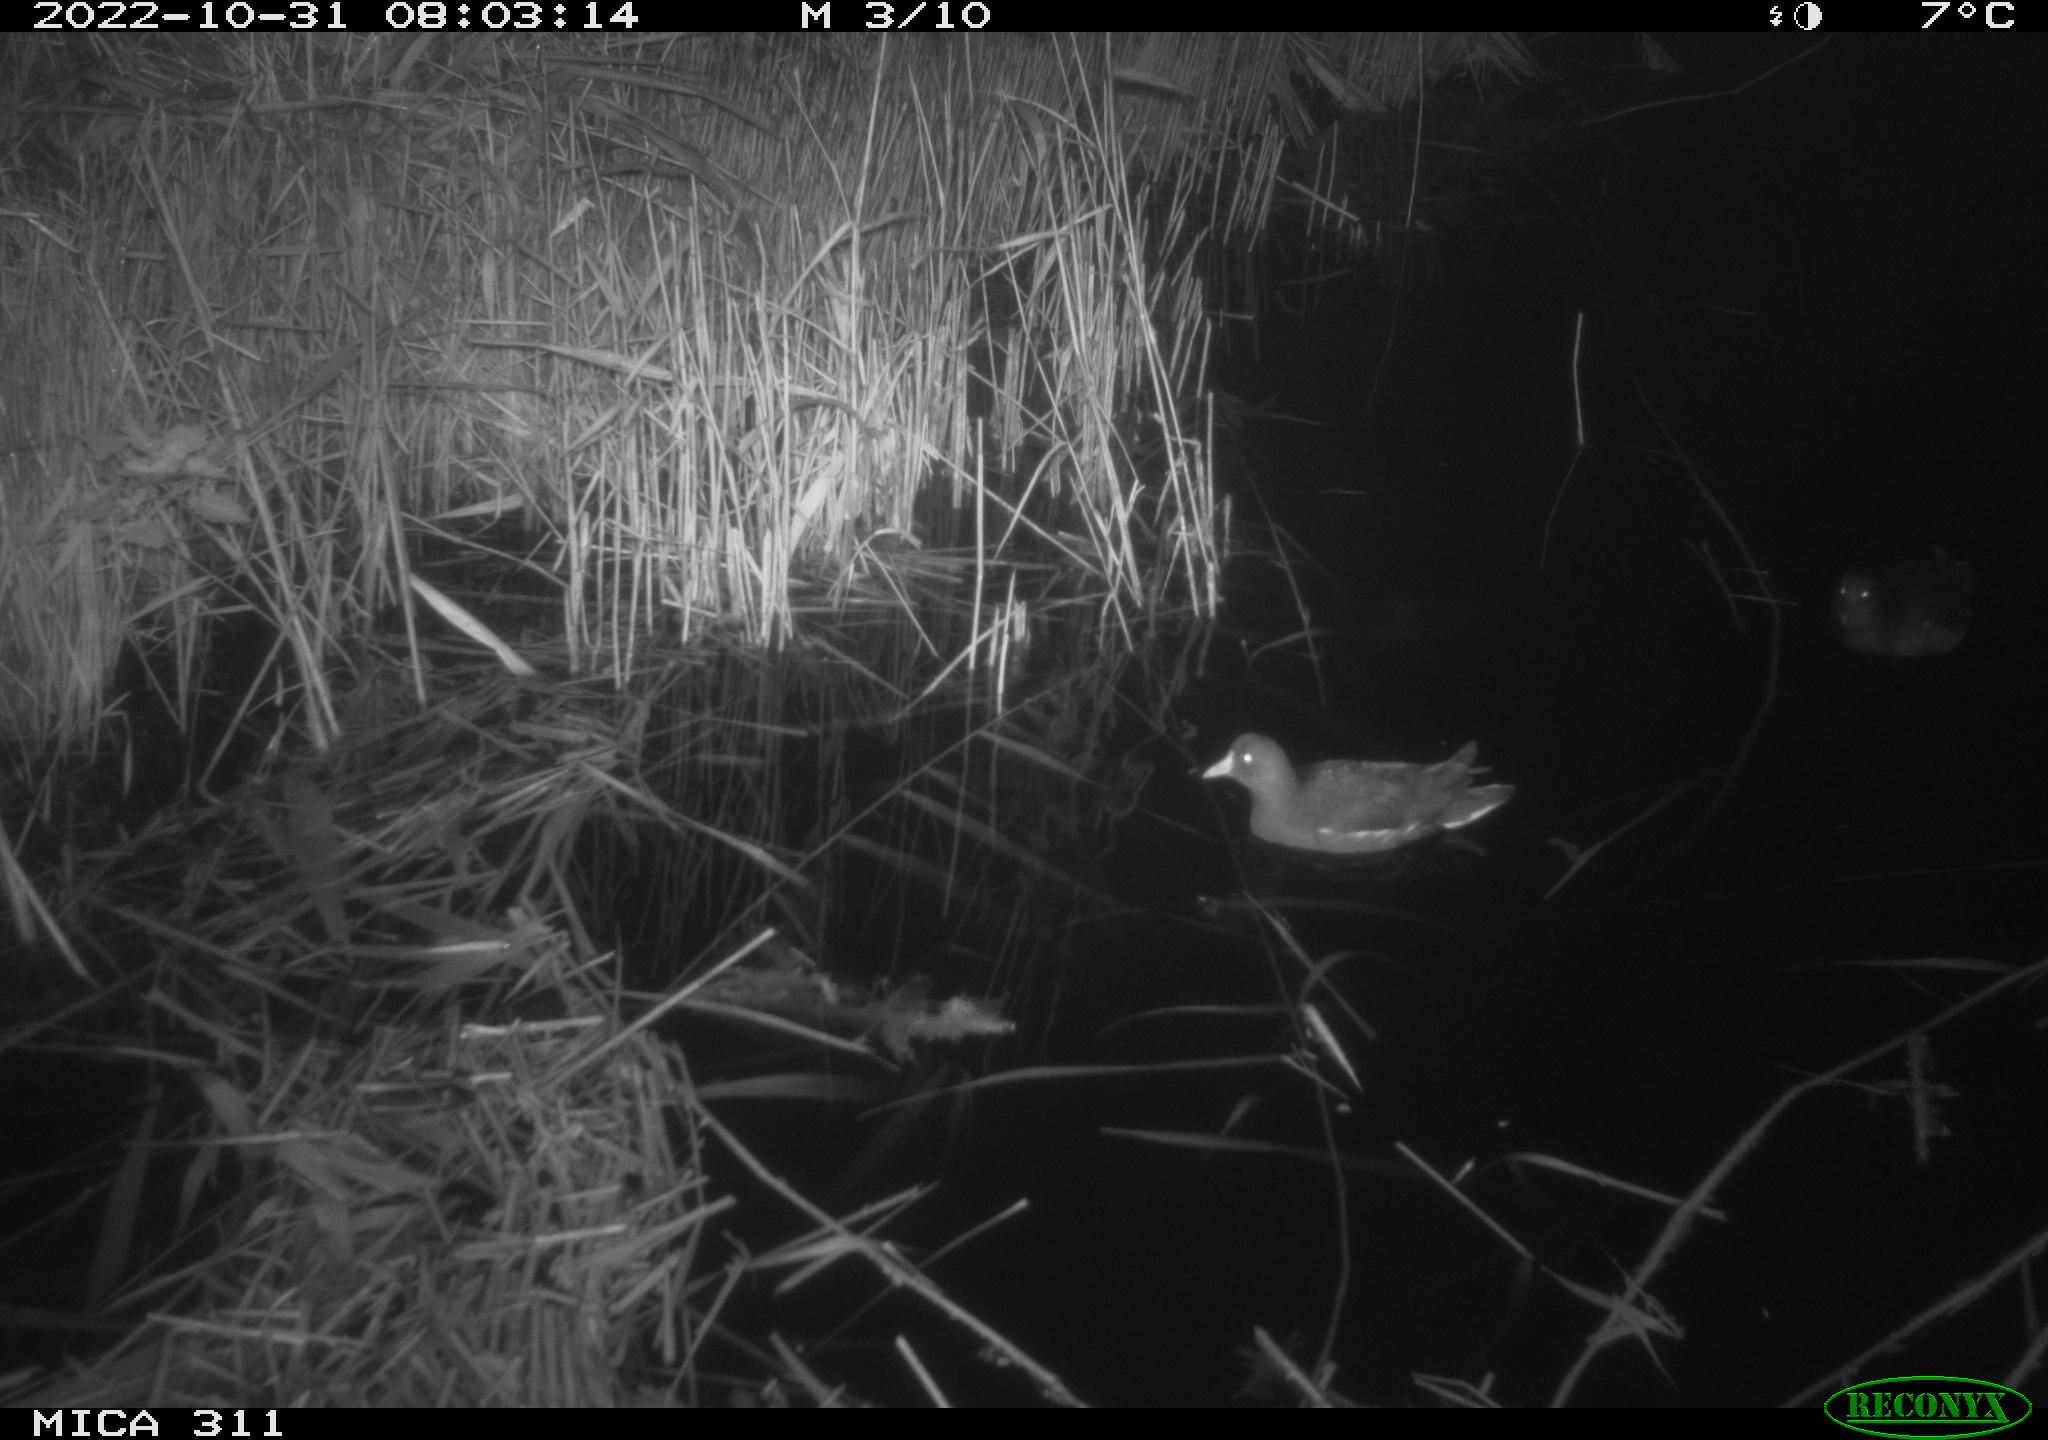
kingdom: Animalia
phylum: Chordata
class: Aves
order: Gruiformes
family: Rallidae
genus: Gallinula
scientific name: Gallinula chloropus
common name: Common moorhen
